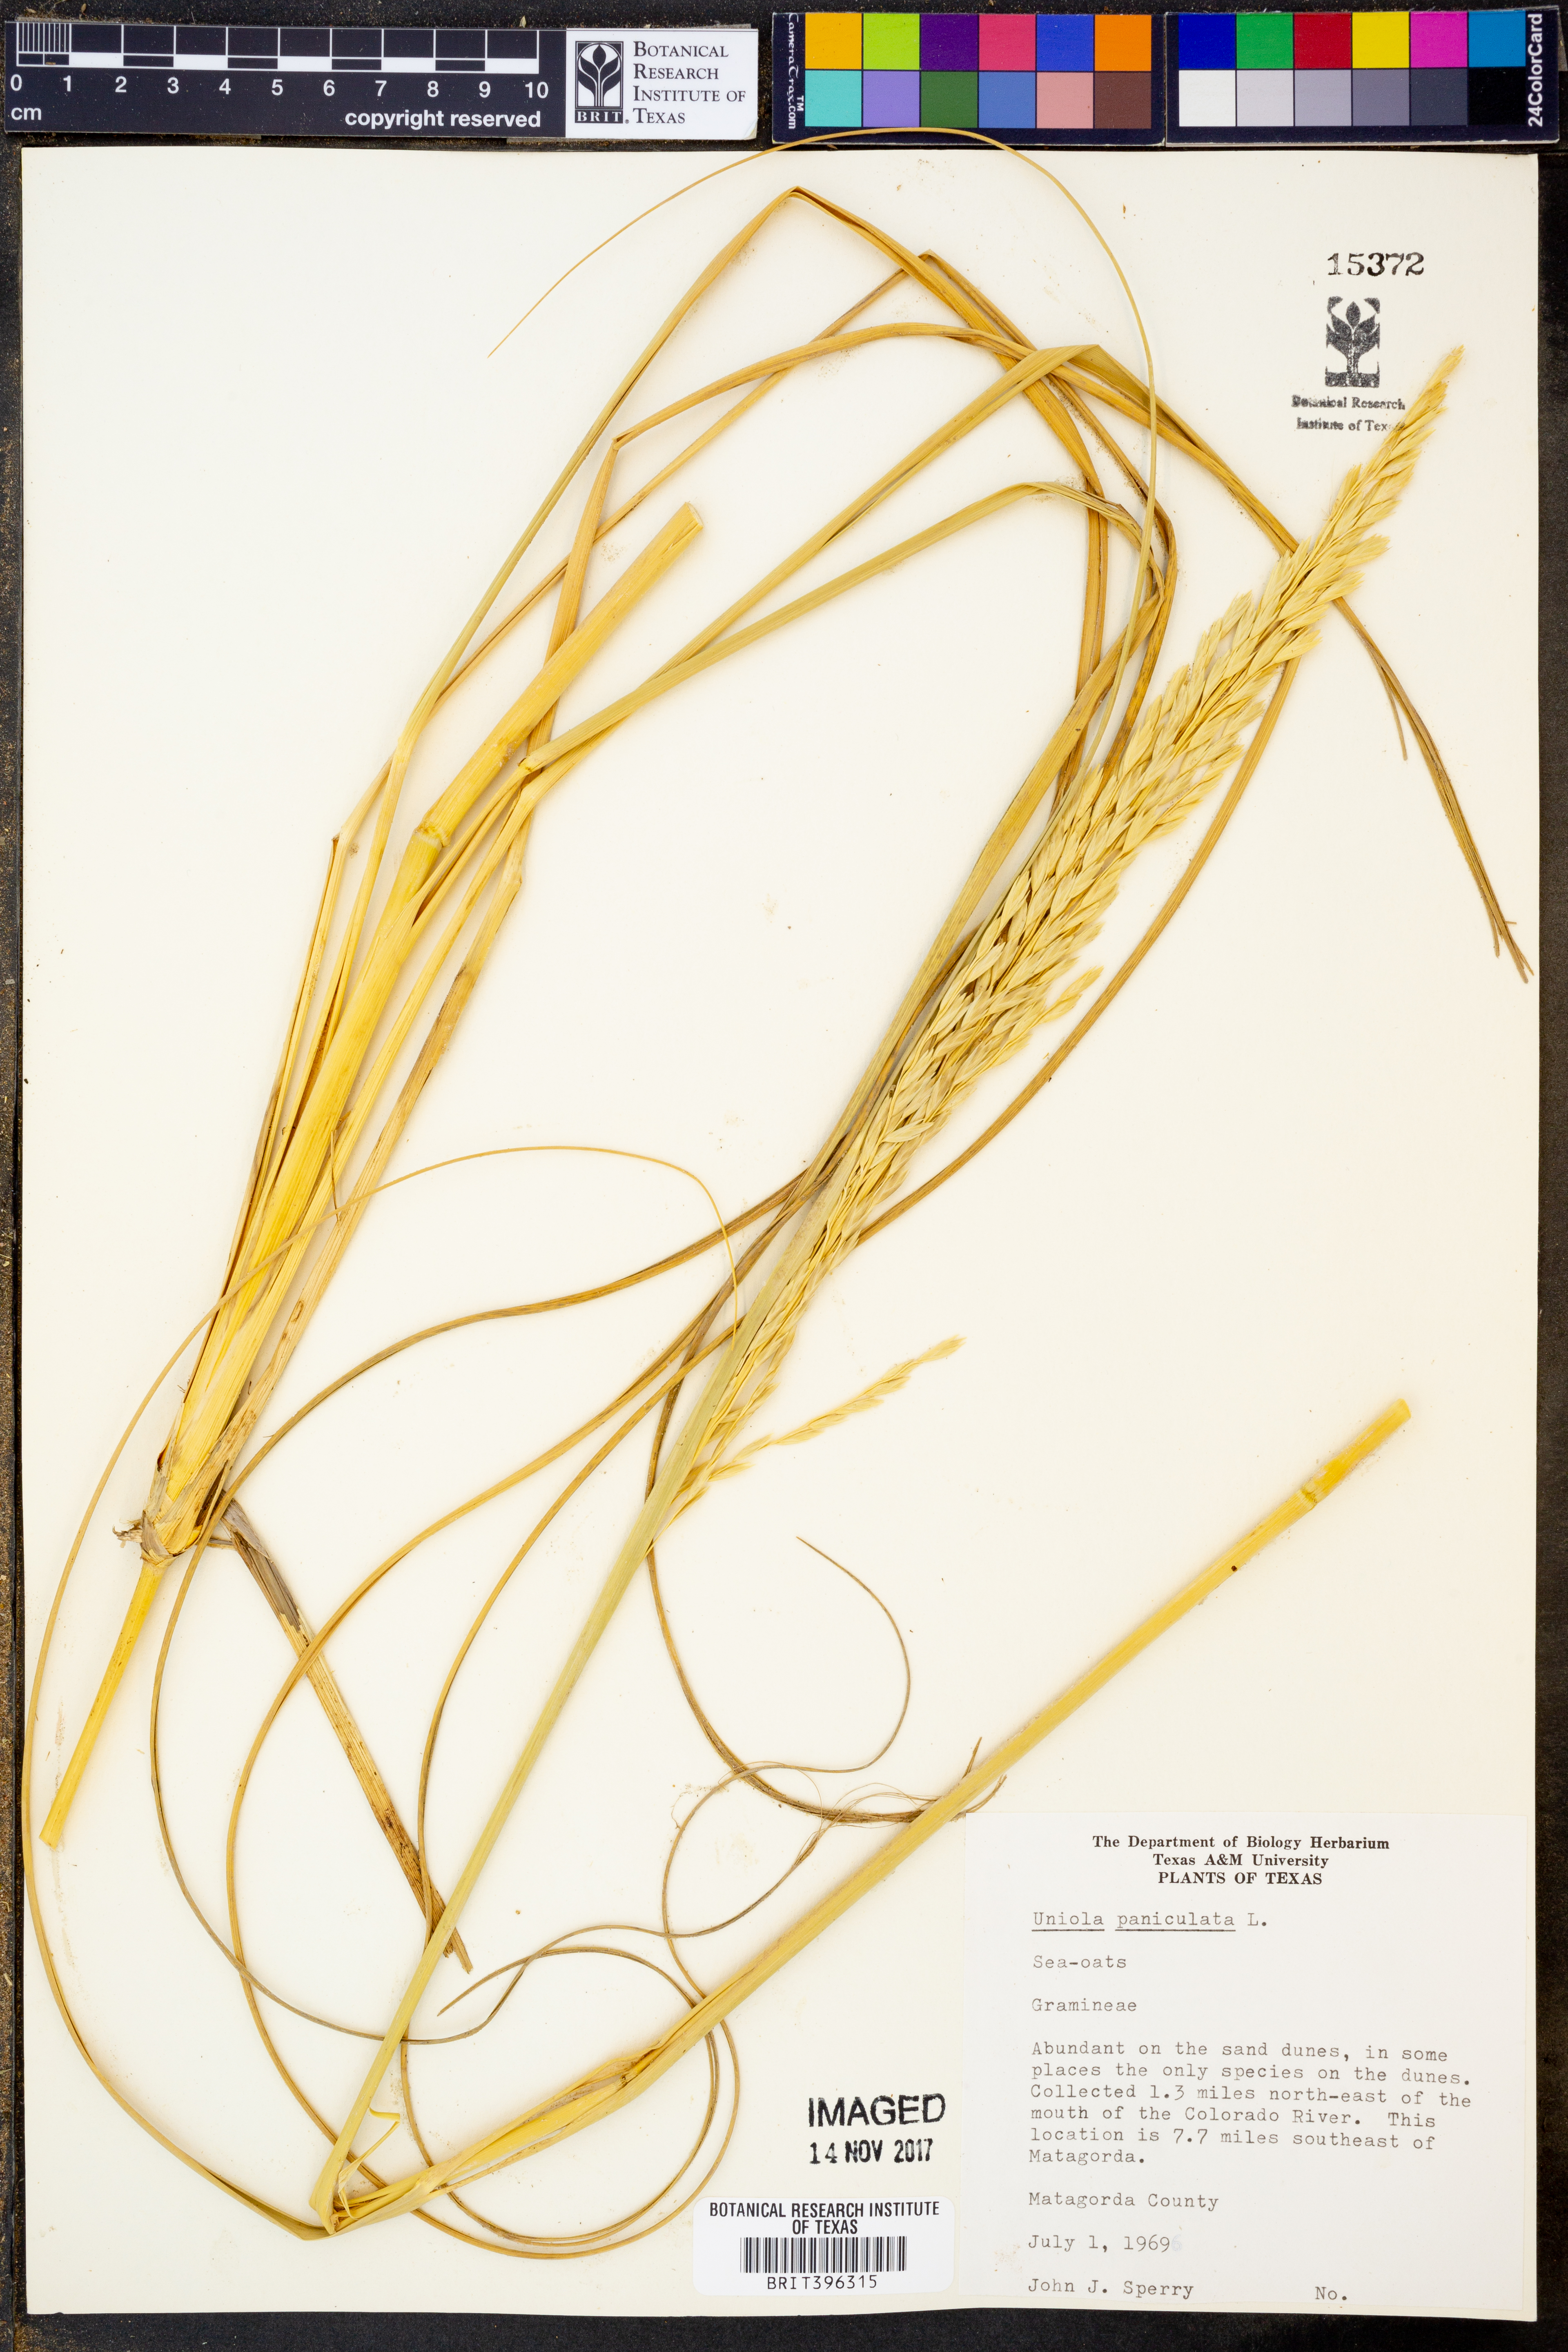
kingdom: Plantae
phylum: Tracheophyta
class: Liliopsida
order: Poales
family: Poaceae
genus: Uniola
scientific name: Uniola paniculata
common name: Seaside-oats
